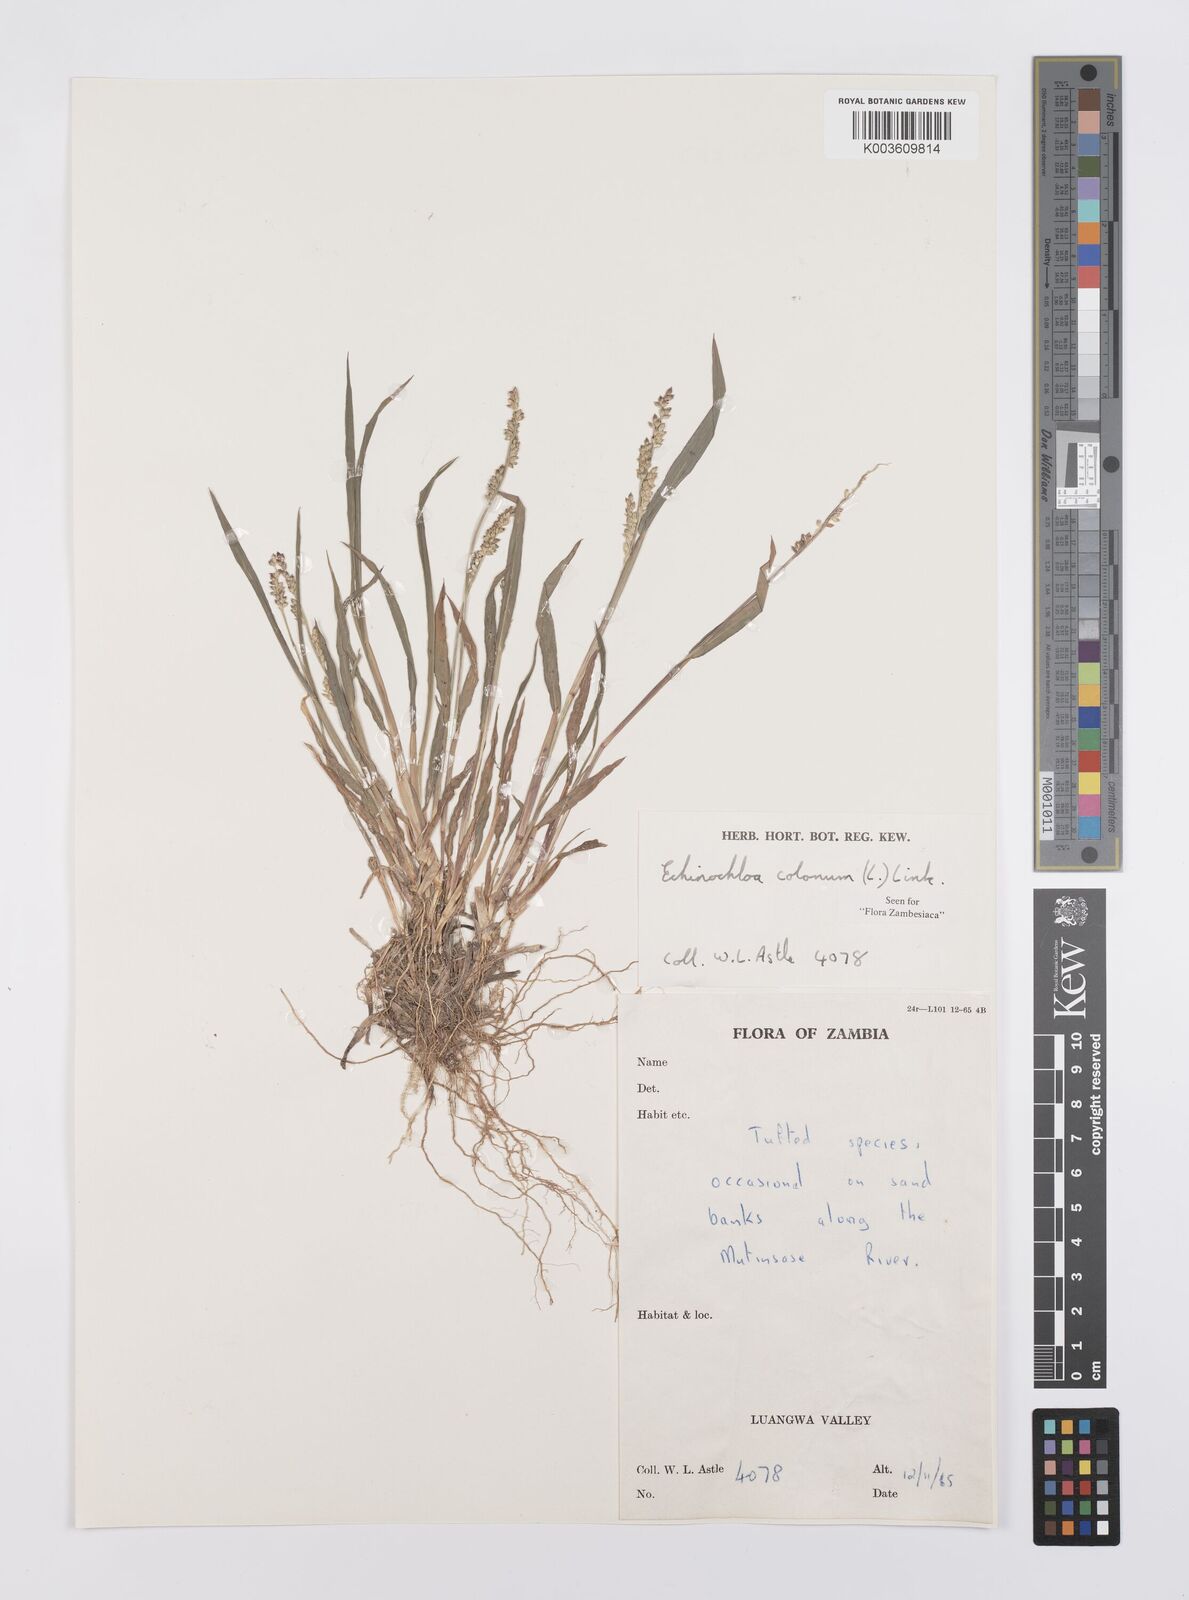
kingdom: Plantae
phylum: Tracheophyta
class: Liliopsida
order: Poales
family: Poaceae
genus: Echinochloa
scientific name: Echinochloa colonum
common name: Jungle rice
